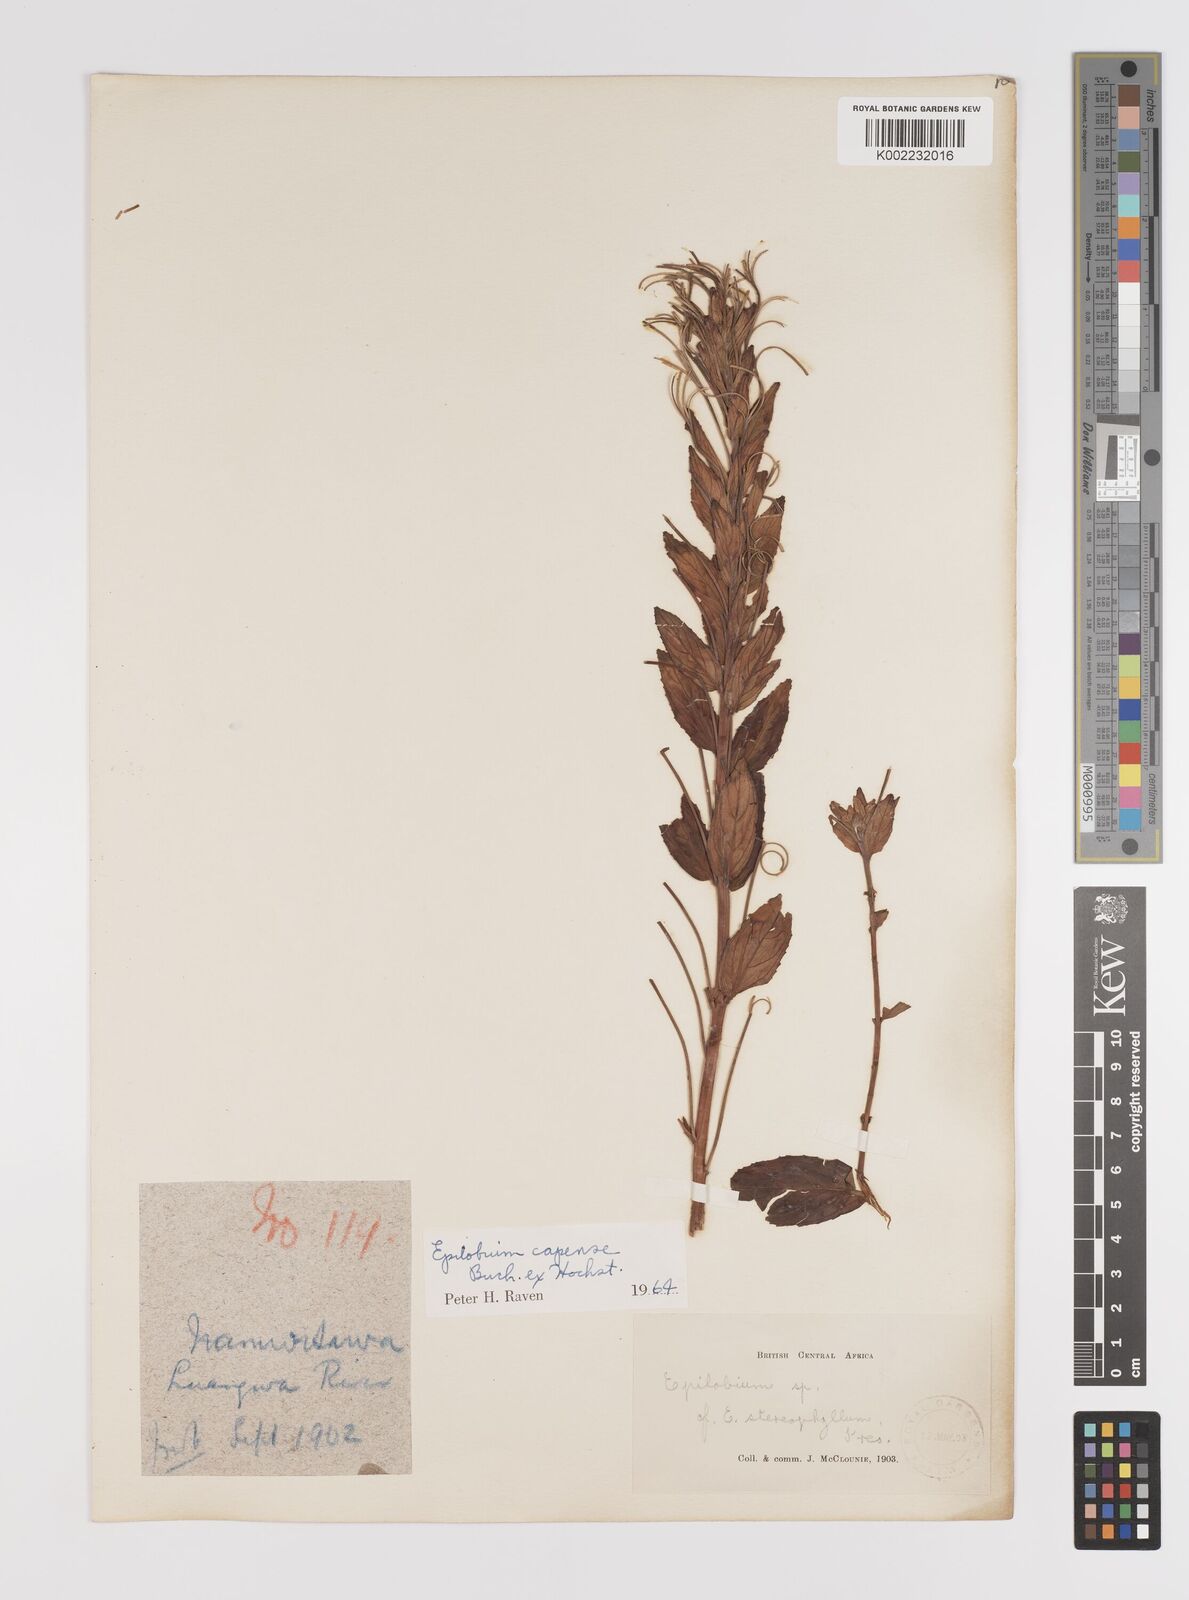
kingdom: Plantae
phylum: Tracheophyta
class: Magnoliopsida
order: Myrtales
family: Onagraceae
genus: Epilobium
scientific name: Epilobium capense
